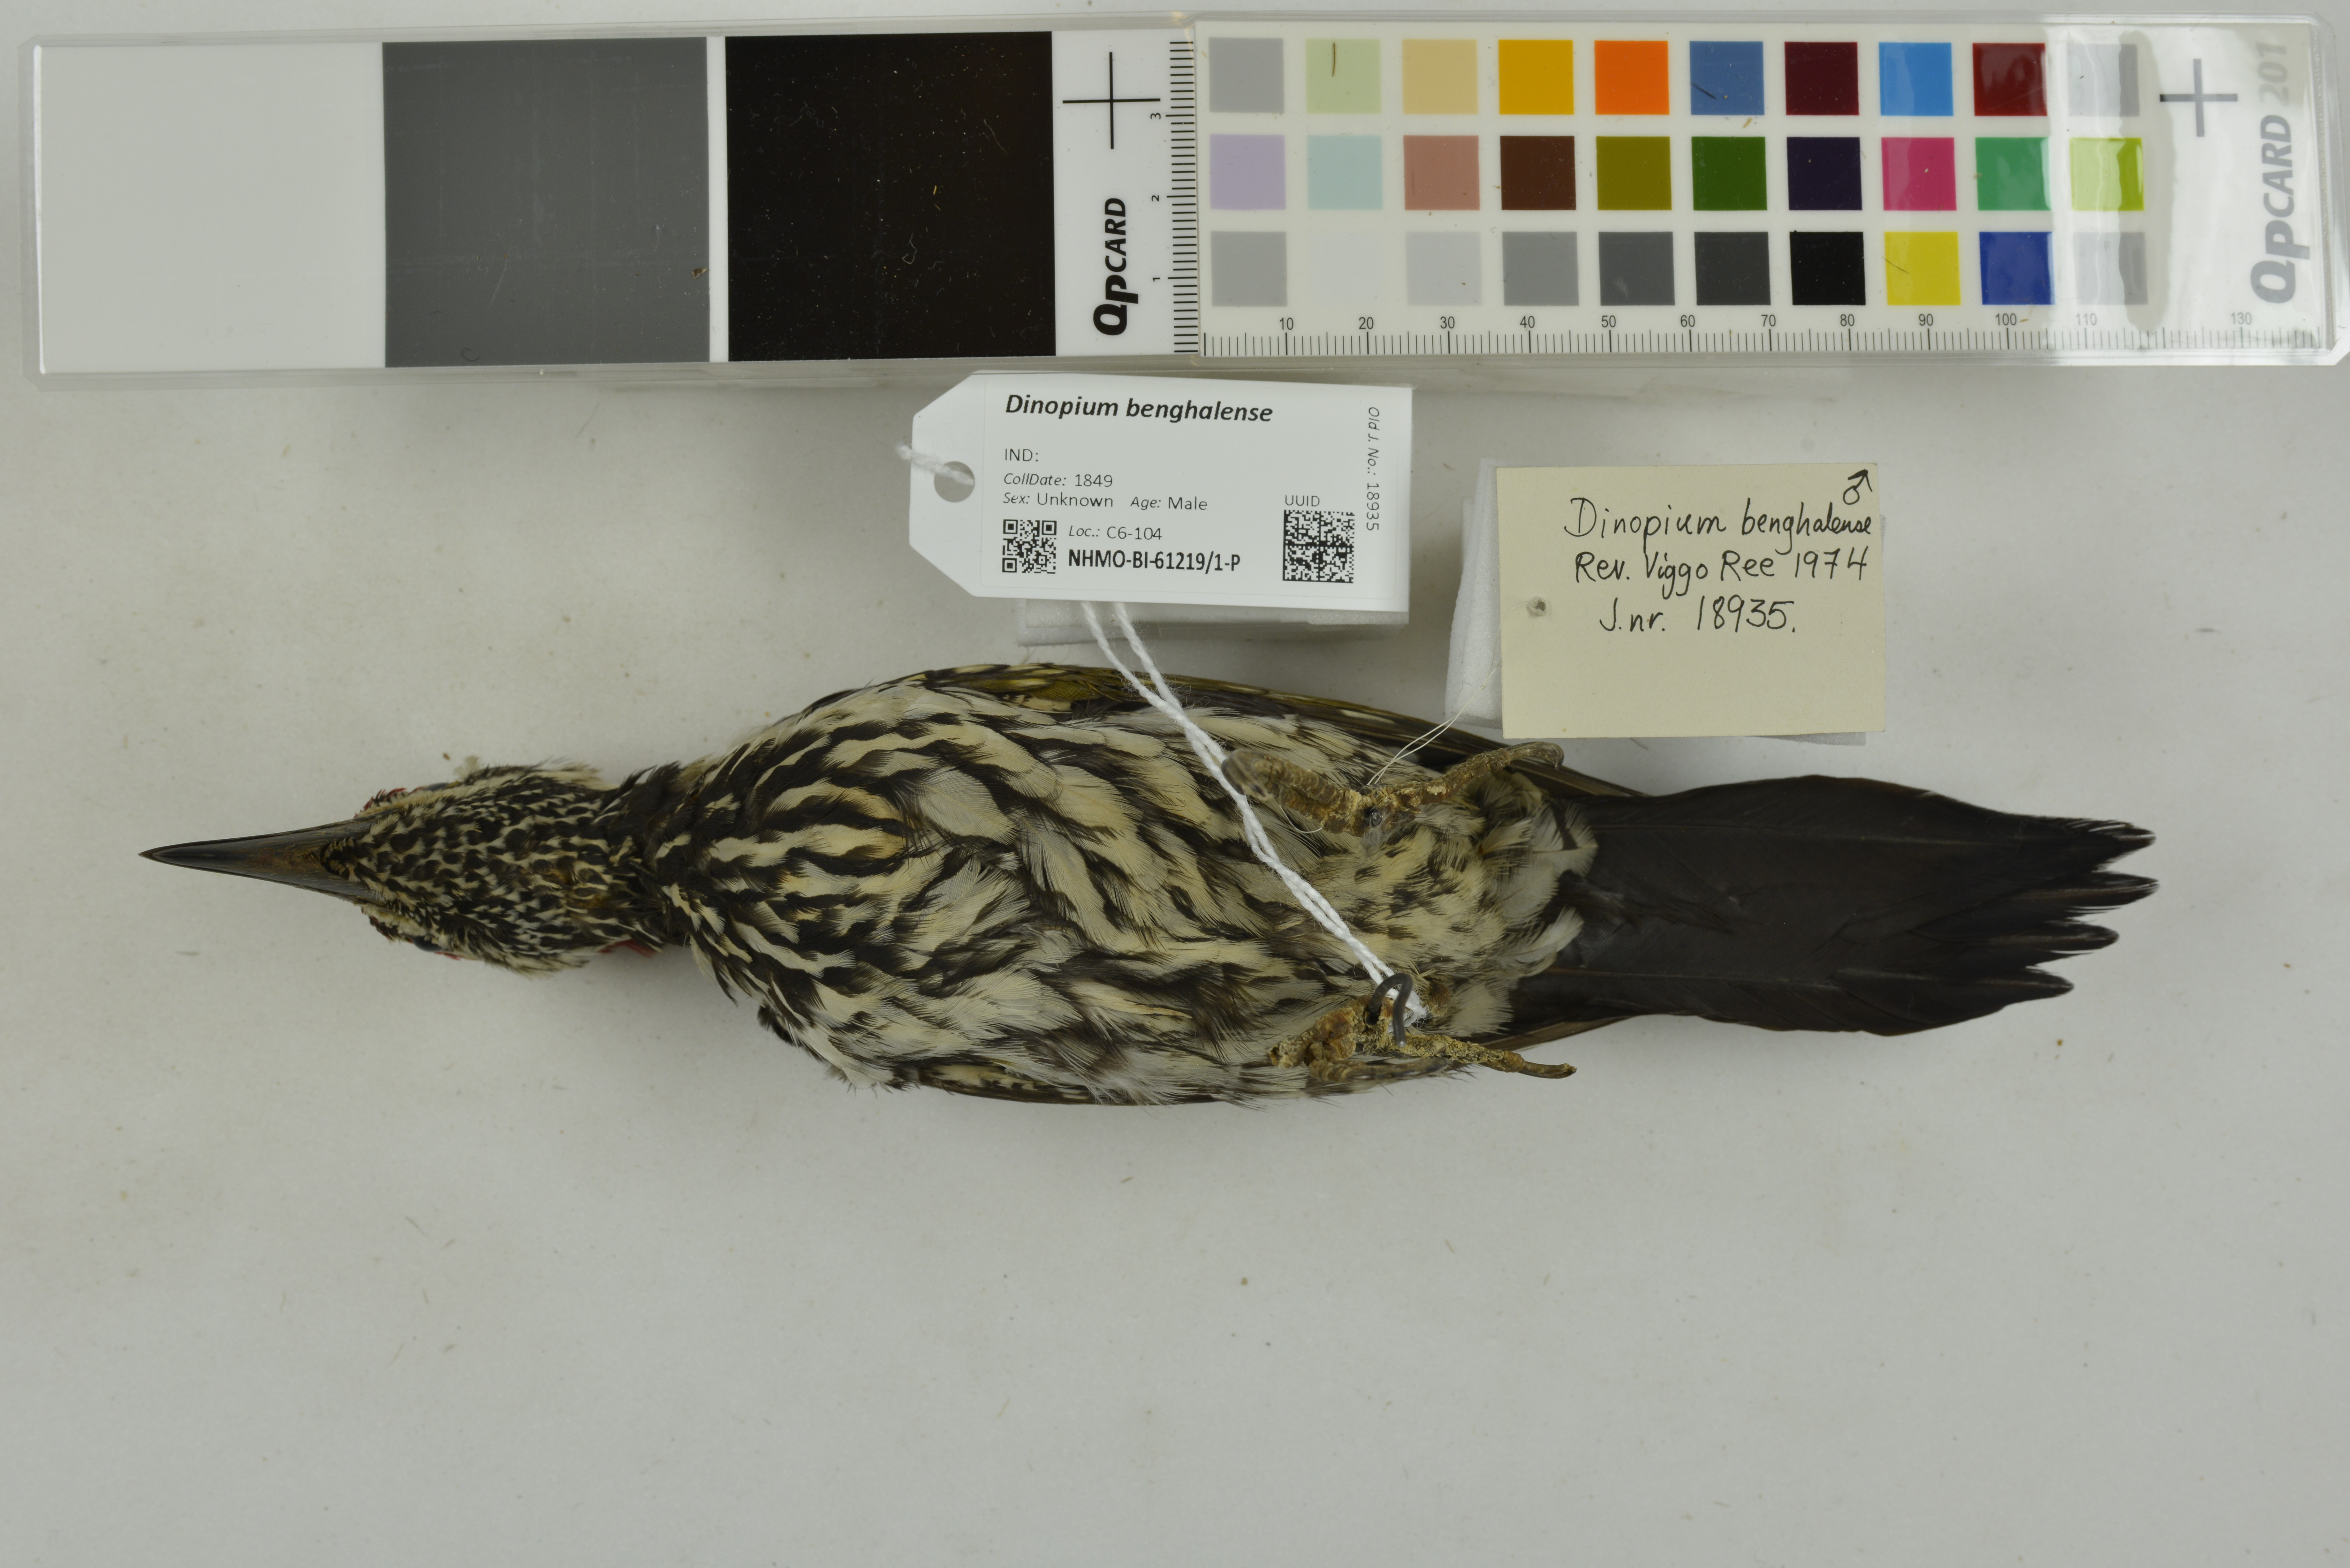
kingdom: Animalia
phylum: Chordata
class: Aves
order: Piciformes
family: Picidae
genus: Dinopium
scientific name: Dinopium benghalense
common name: Black-rumped flameback
